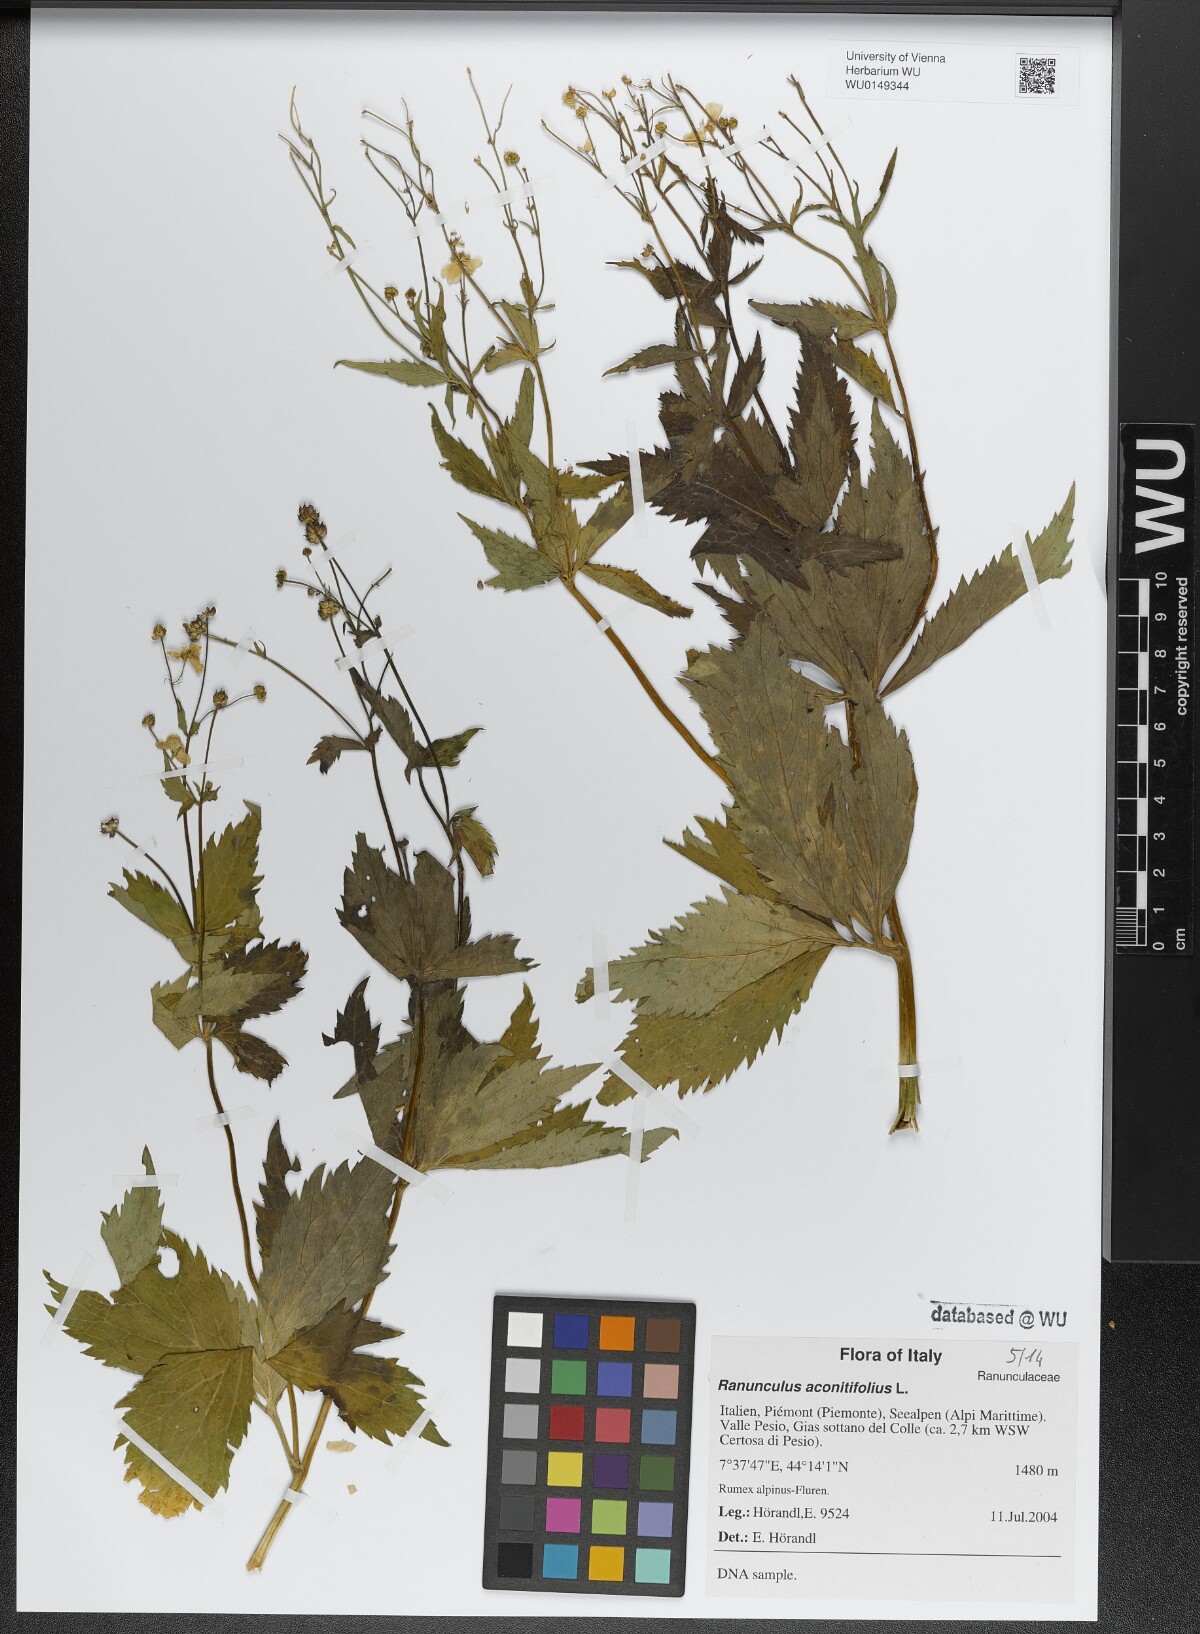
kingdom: Plantae
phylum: Tracheophyta
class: Magnoliopsida
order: Ranunculales
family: Ranunculaceae
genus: Ranunculus
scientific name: Ranunculus aconitifolius
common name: Aconite-leaved buttercup
